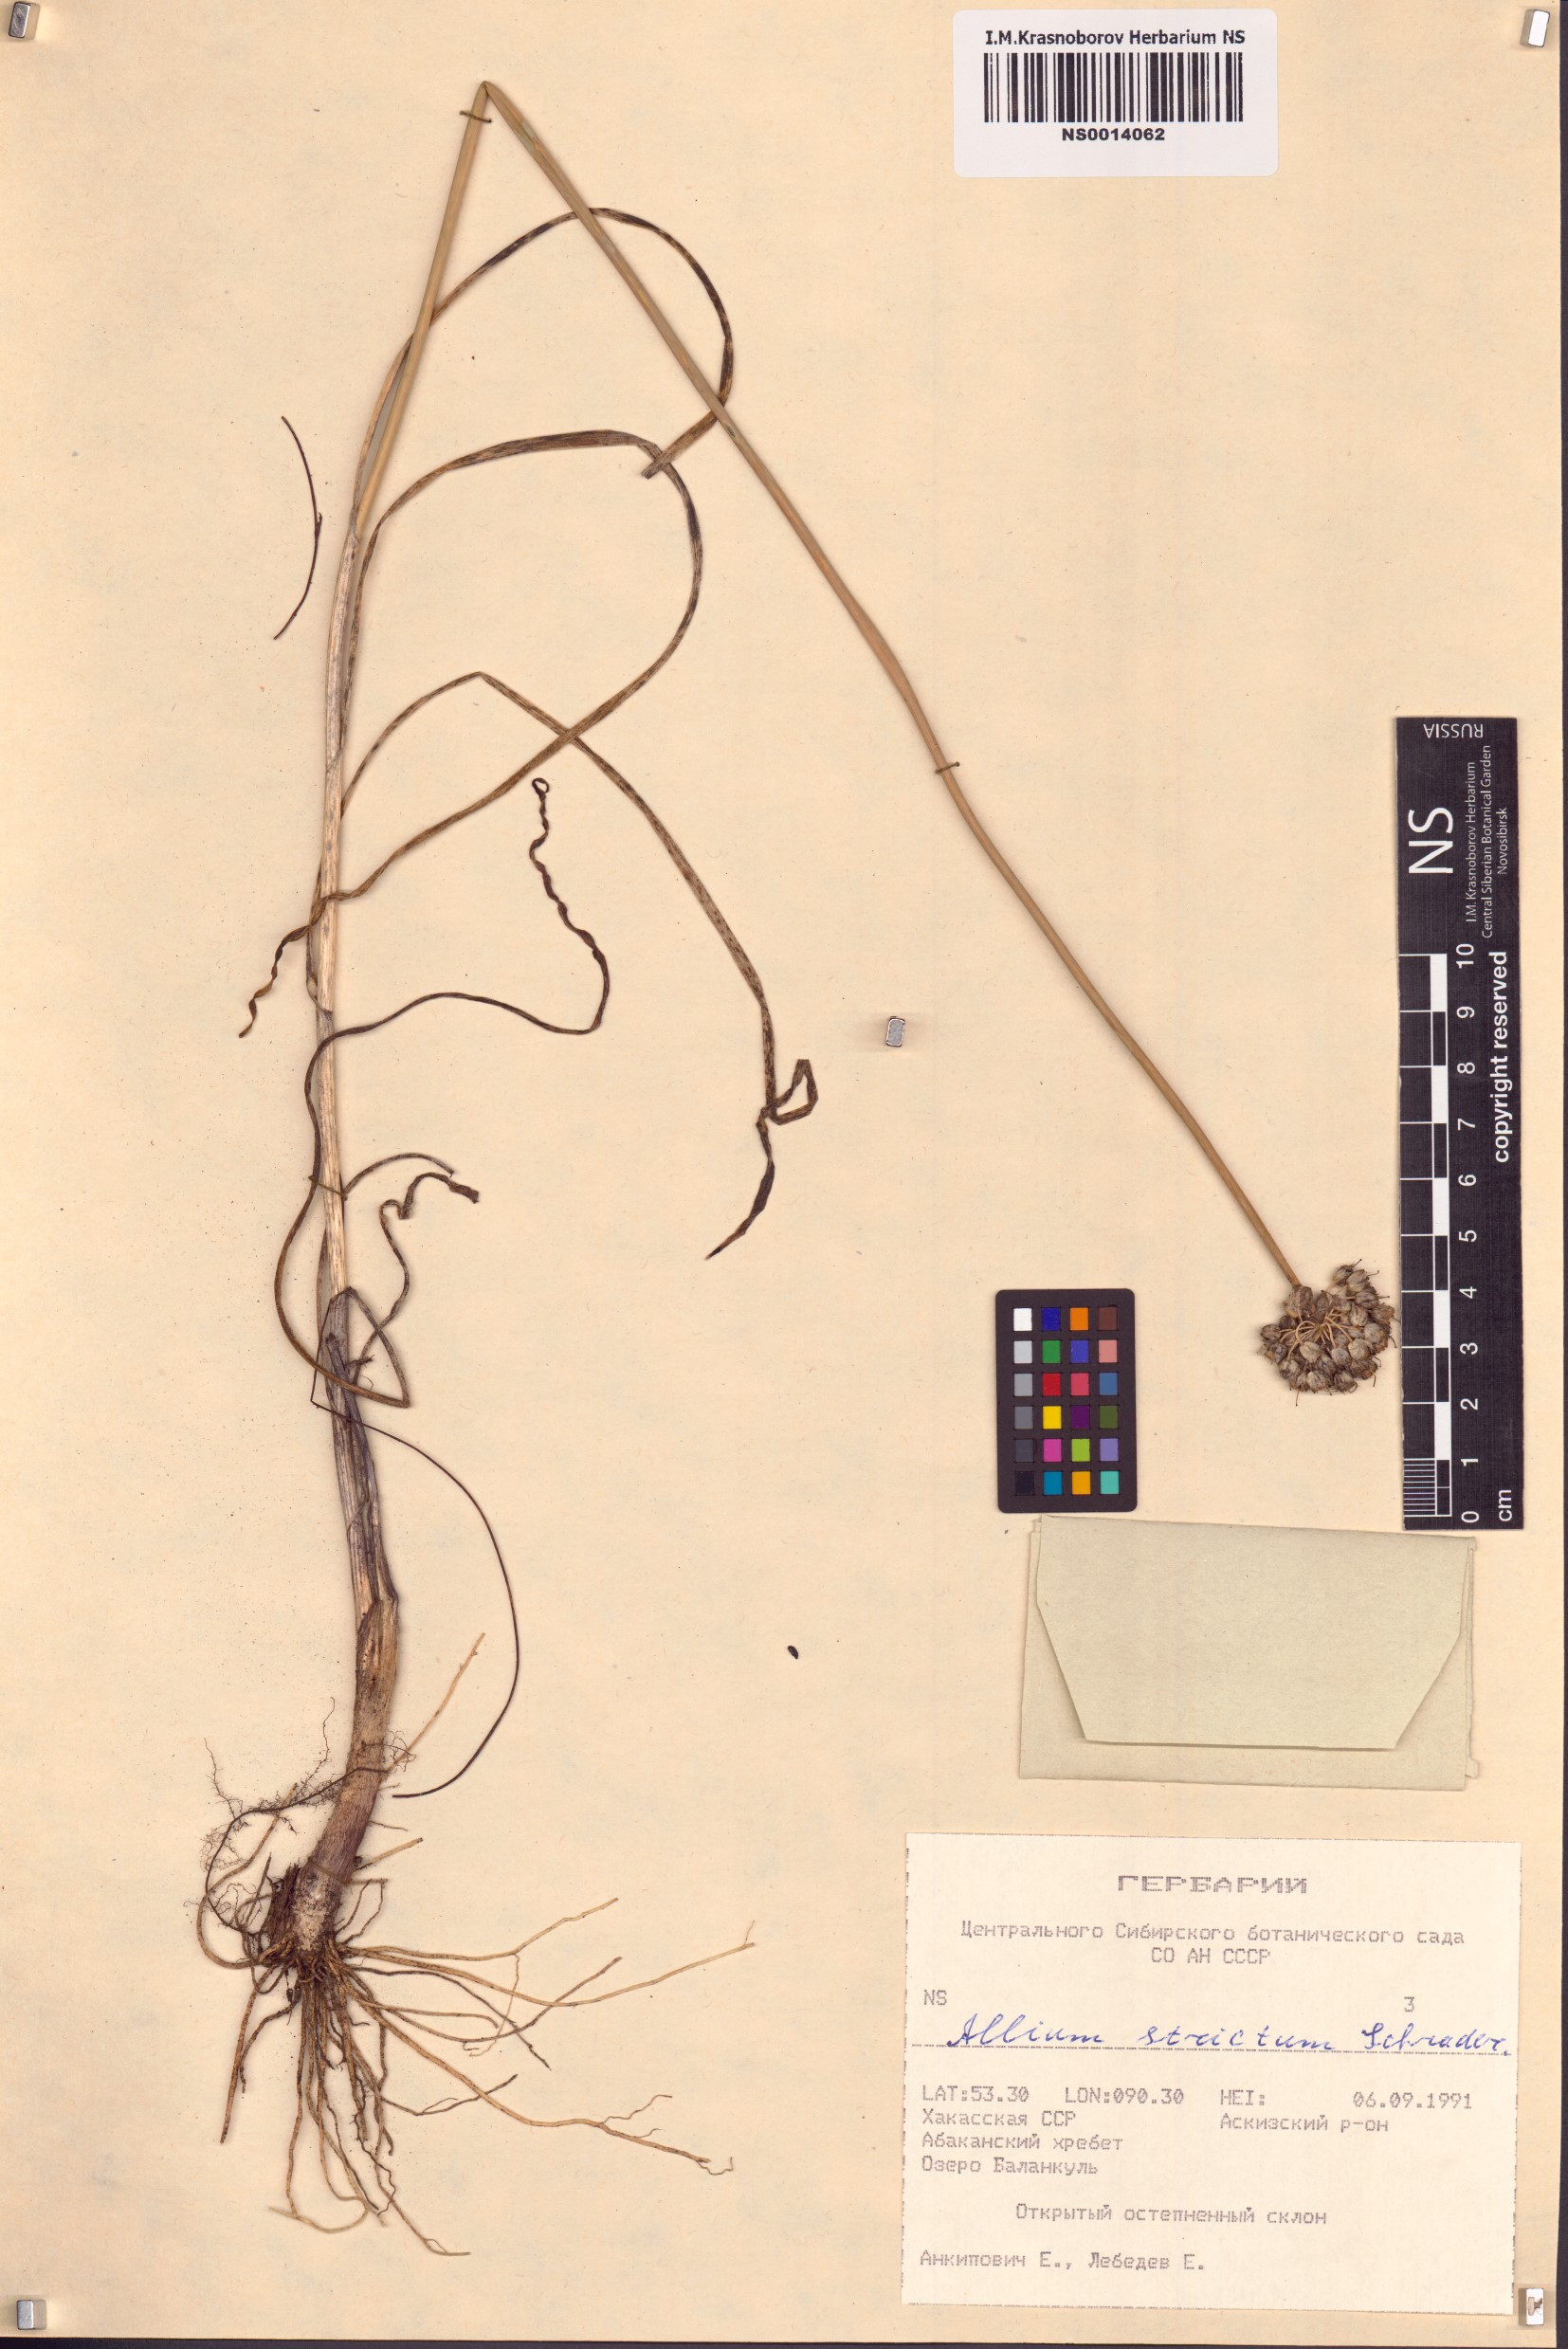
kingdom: Plantae
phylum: Tracheophyta
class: Liliopsida
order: Asparagales
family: Amaryllidaceae
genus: Allium
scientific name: Allium strictum
